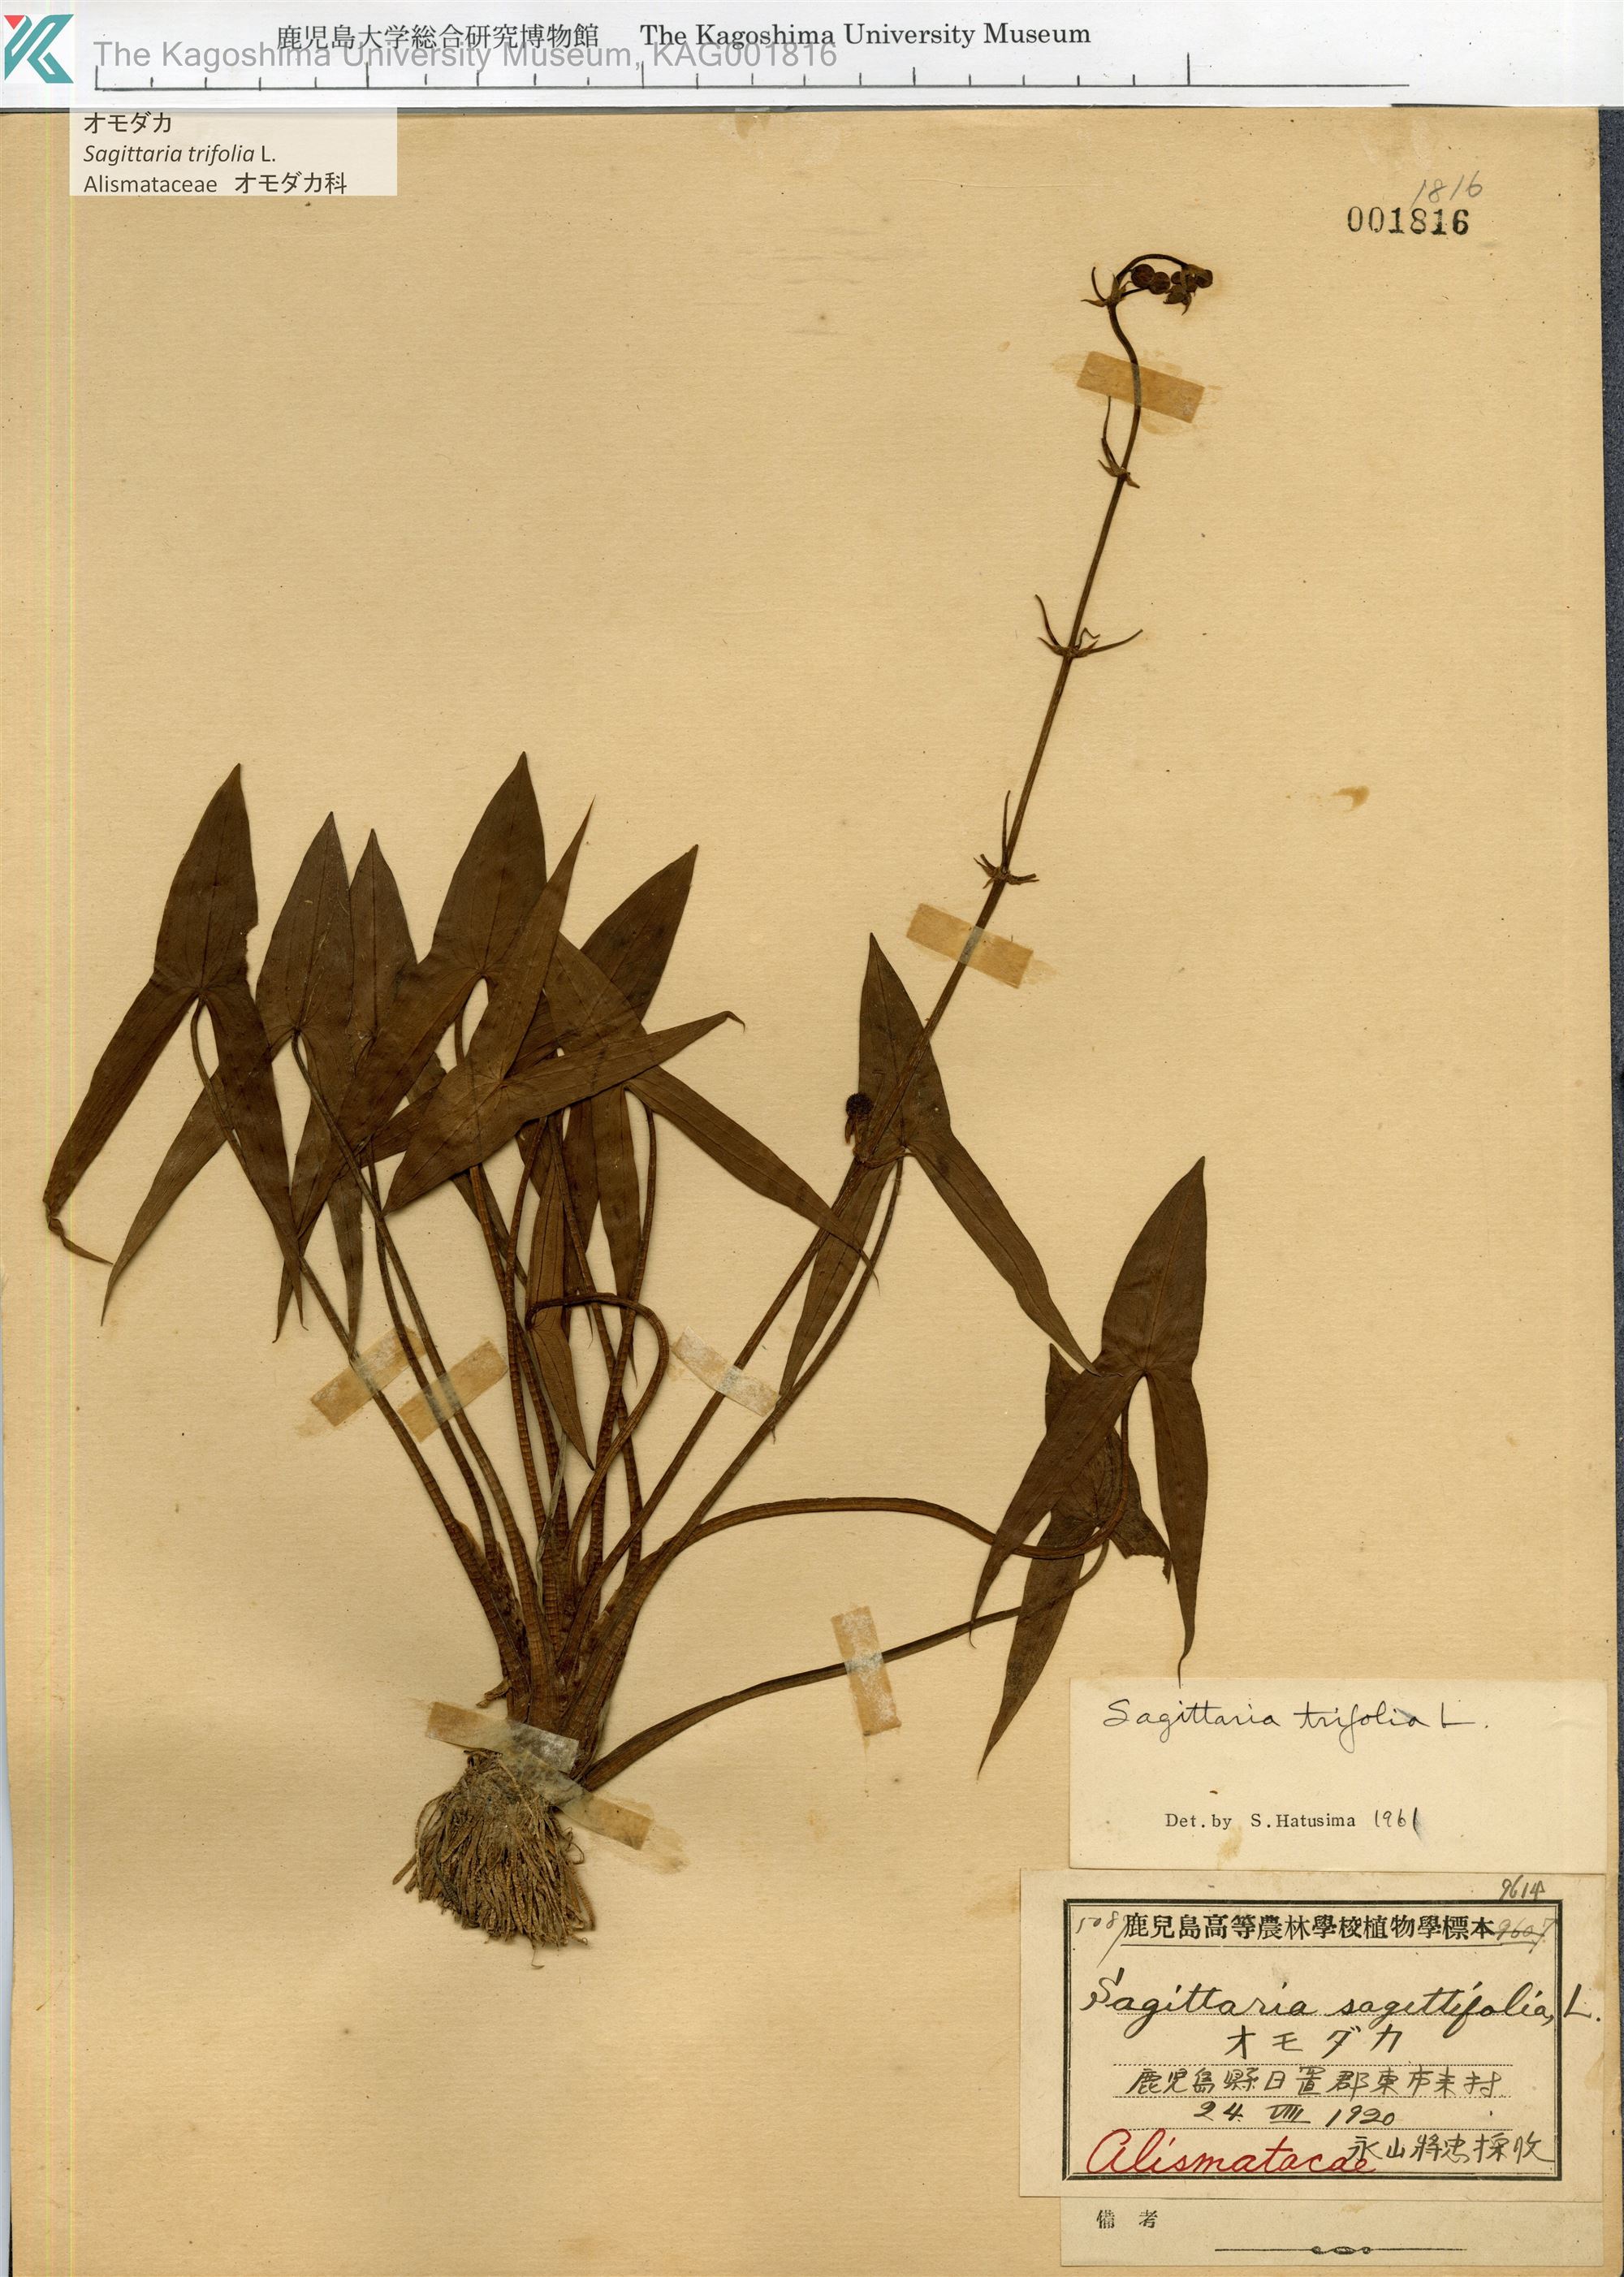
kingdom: Plantae
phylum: Tracheophyta
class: Liliopsida
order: Alismatales
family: Alismataceae
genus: Sagittaria
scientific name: Sagittaria trifolia
